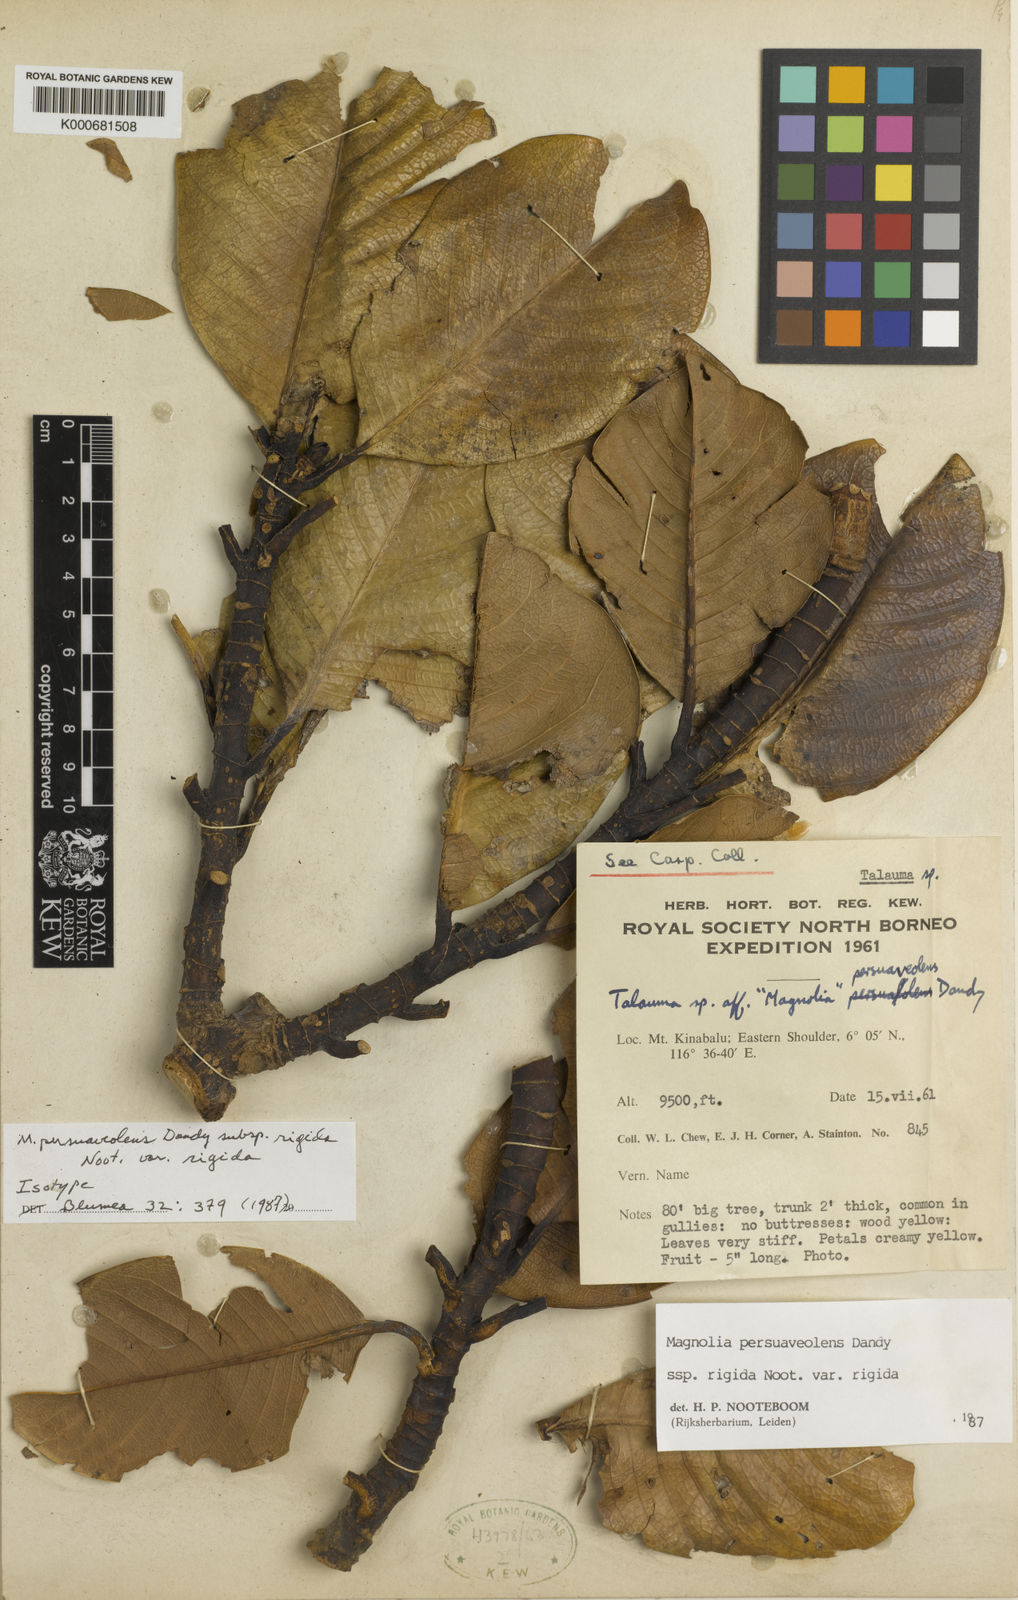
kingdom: Plantae
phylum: Tracheophyta
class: Magnoliopsida
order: Magnoliales
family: Magnoliaceae
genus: Magnolia
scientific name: Magnolia persuaveolens
